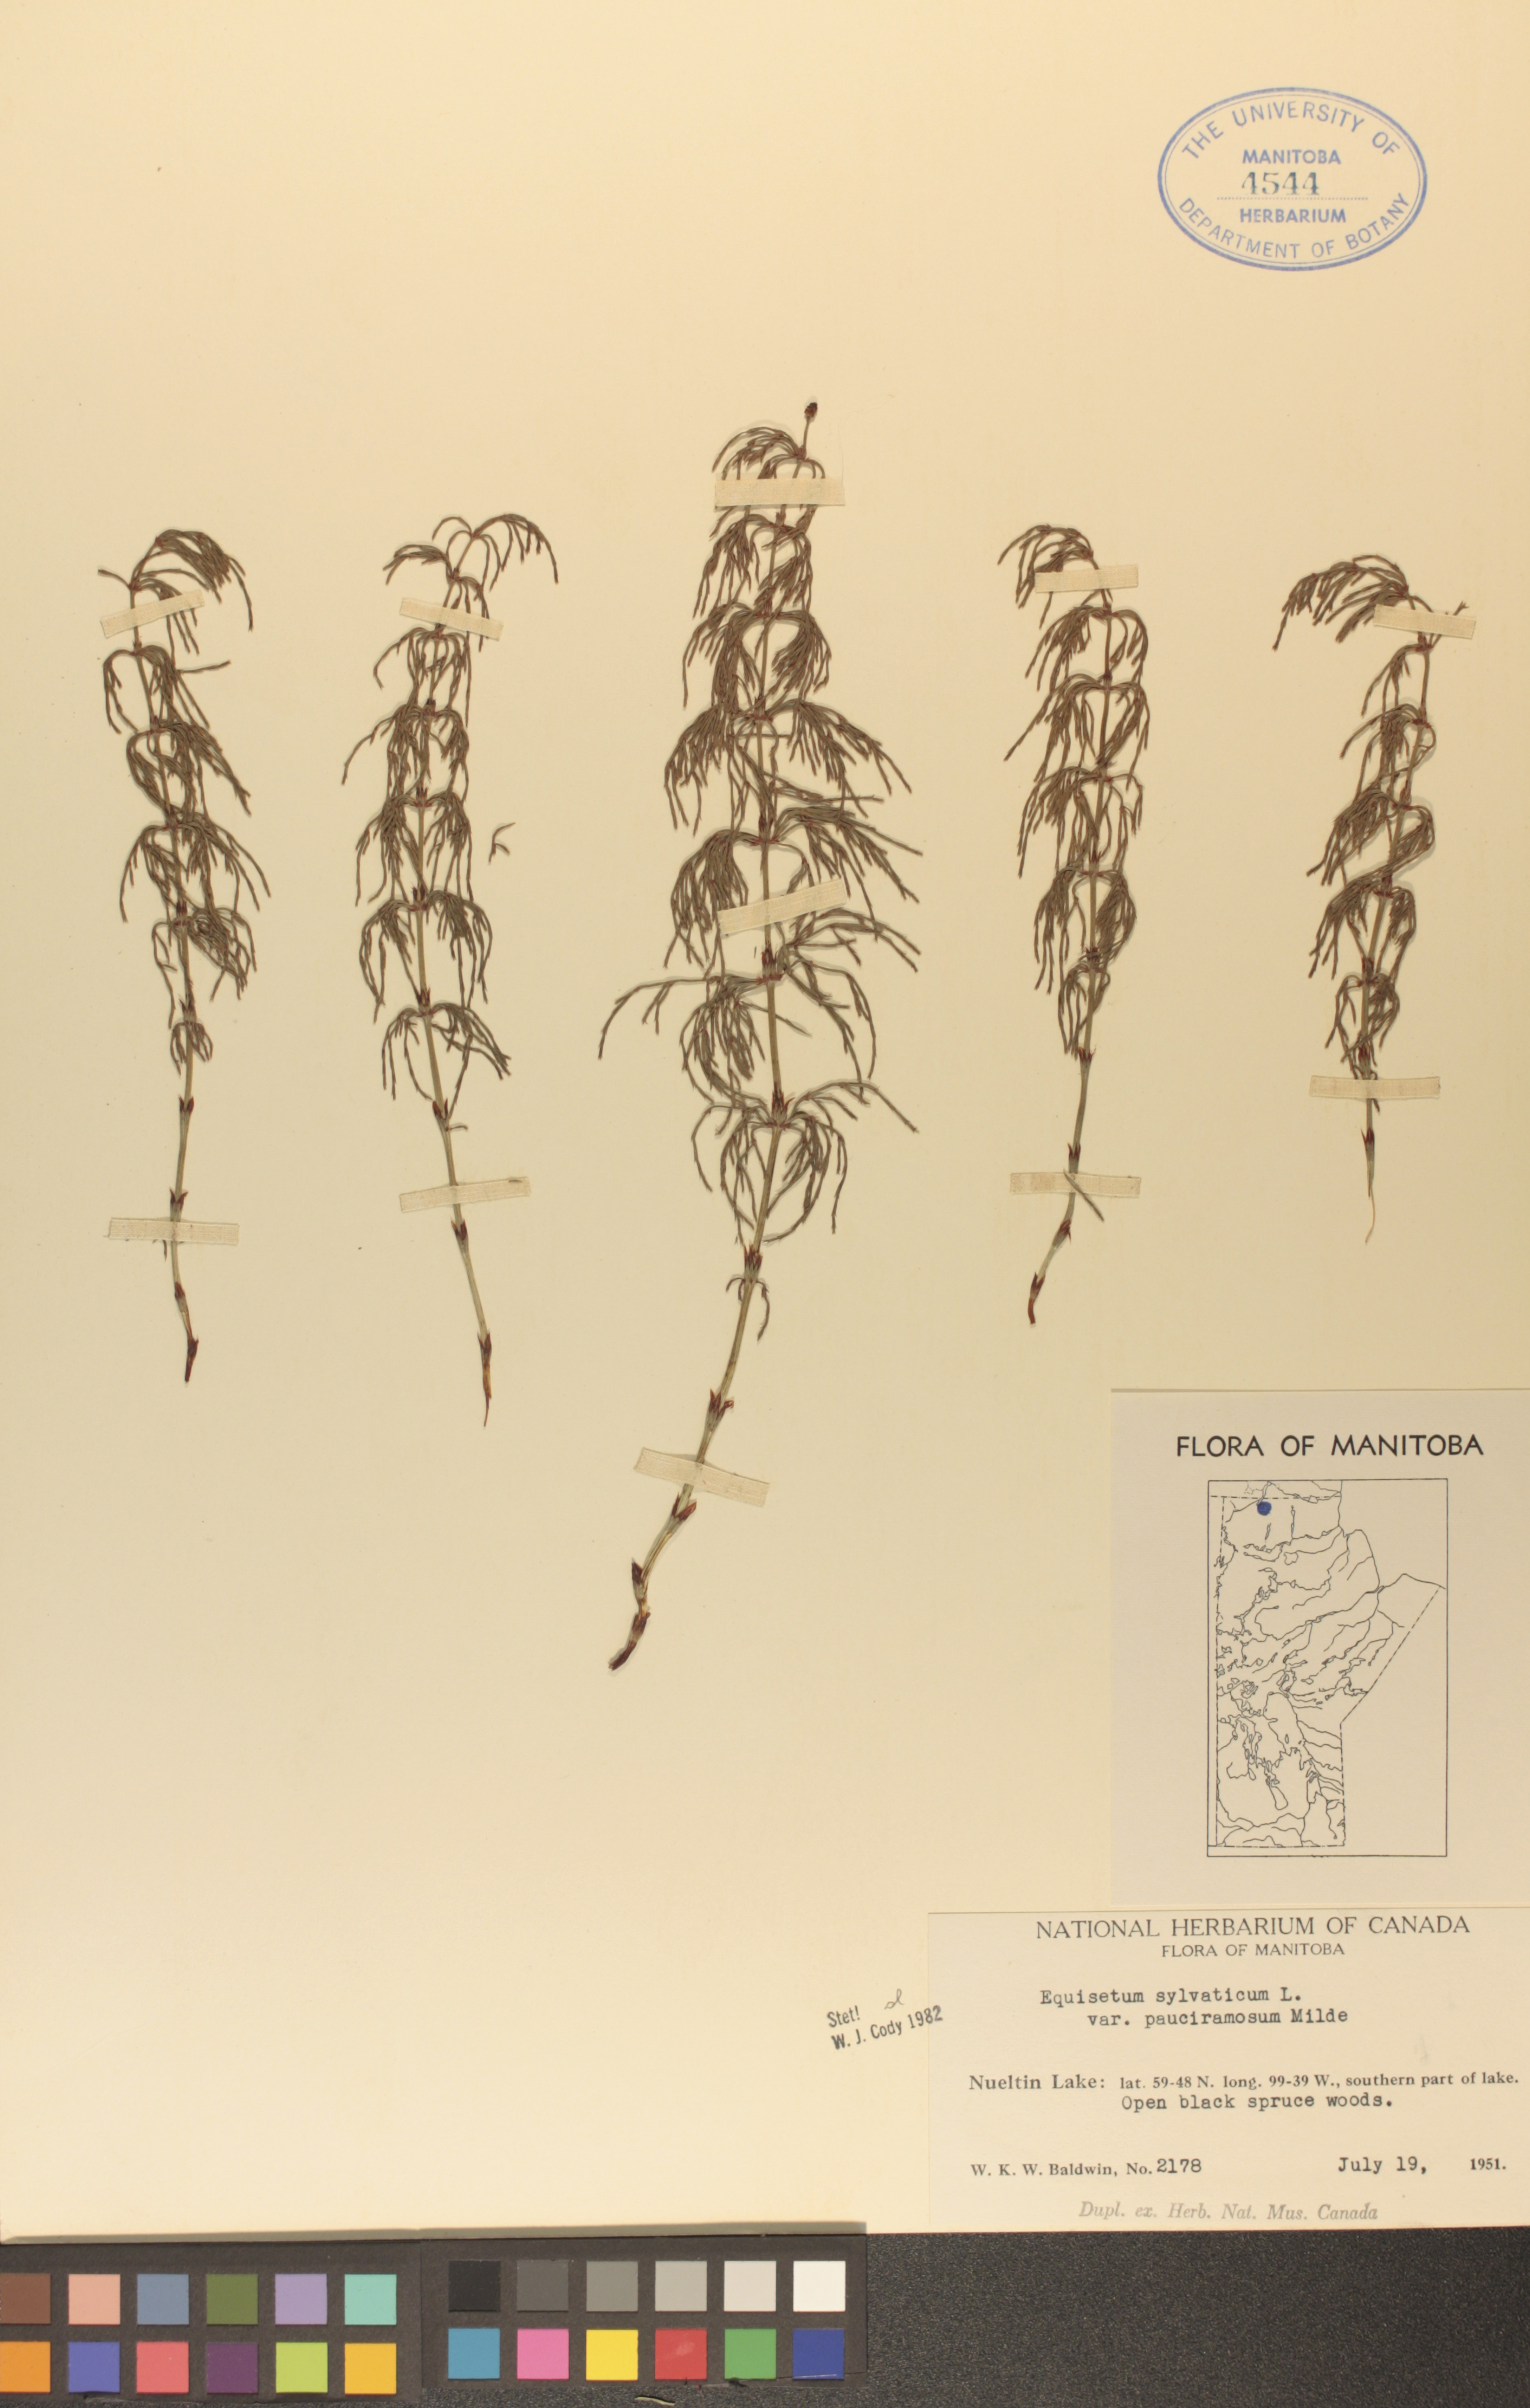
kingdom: Plantae
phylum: Tracheophyta
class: Polypodiopsida
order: Equisetales
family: Equisetaceae
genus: Equisetum
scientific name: Equisetum sylvaticum
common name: Wood horsetail
